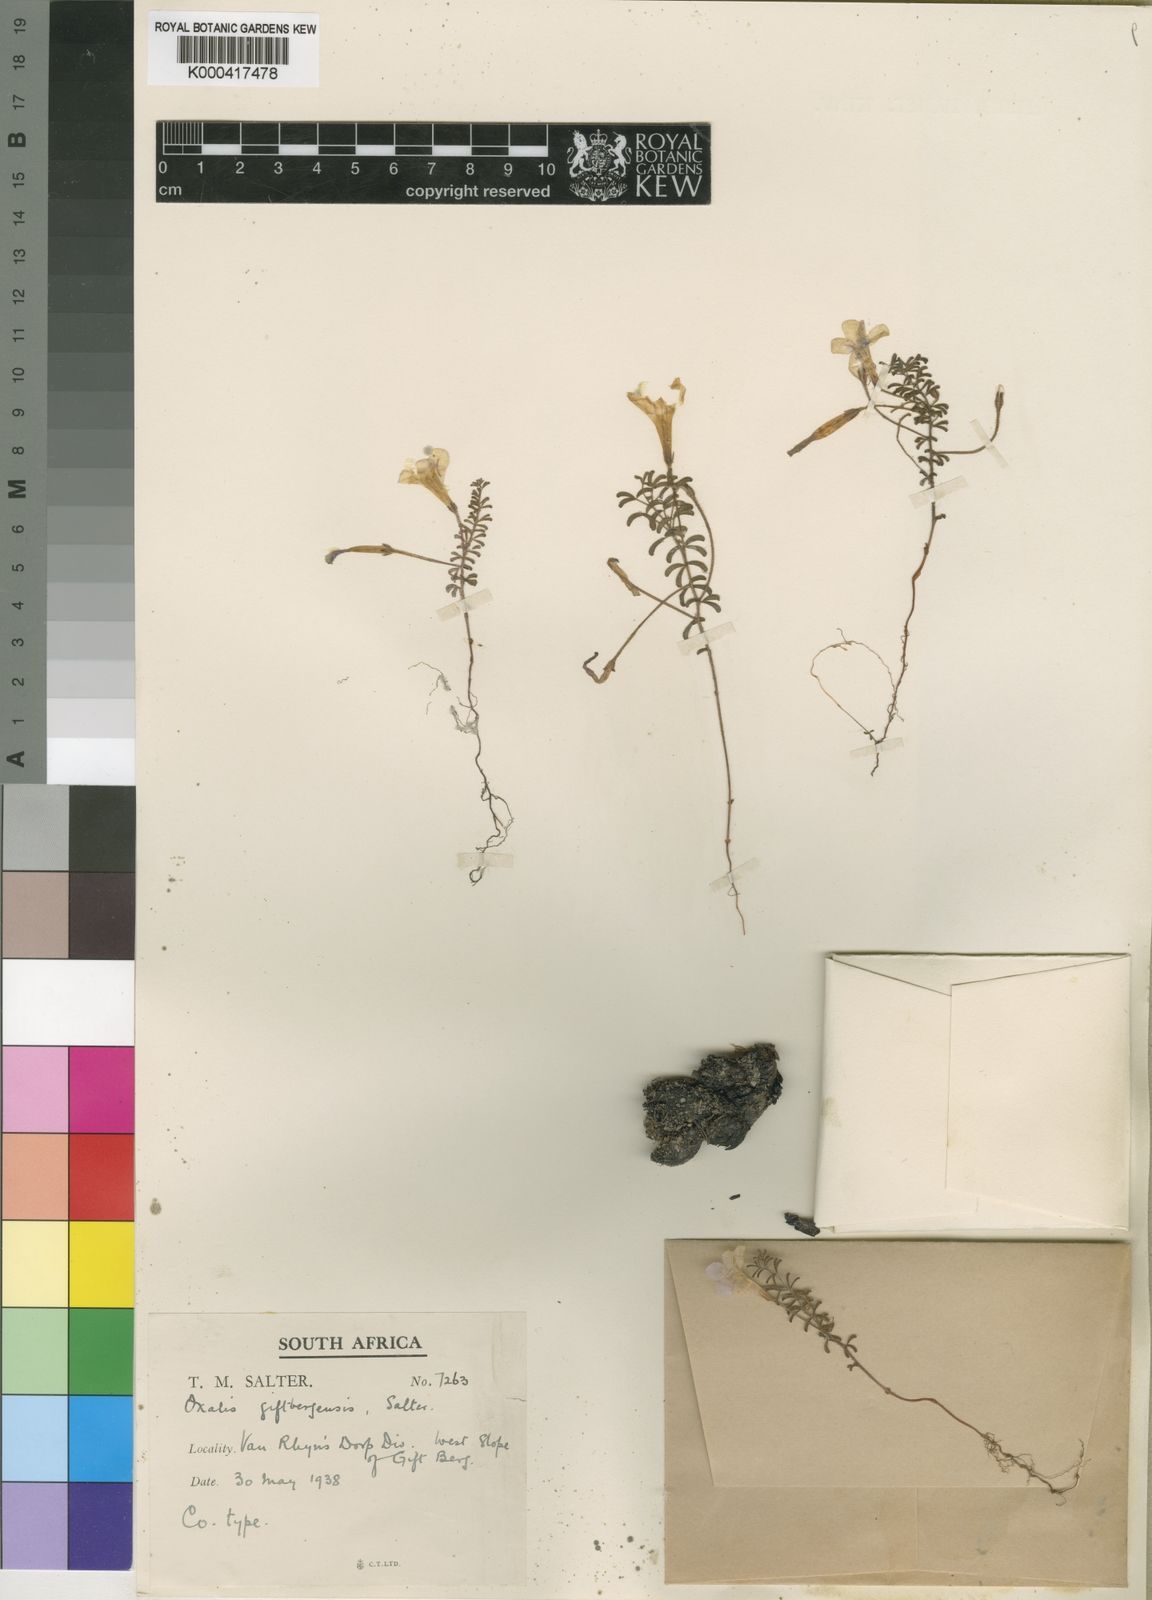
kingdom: Plantae
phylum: Tracheophyta
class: Magnoliopsida
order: Oxalidales
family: Oxalidaceae
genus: Oxalis
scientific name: Oxalis giftbergensis
